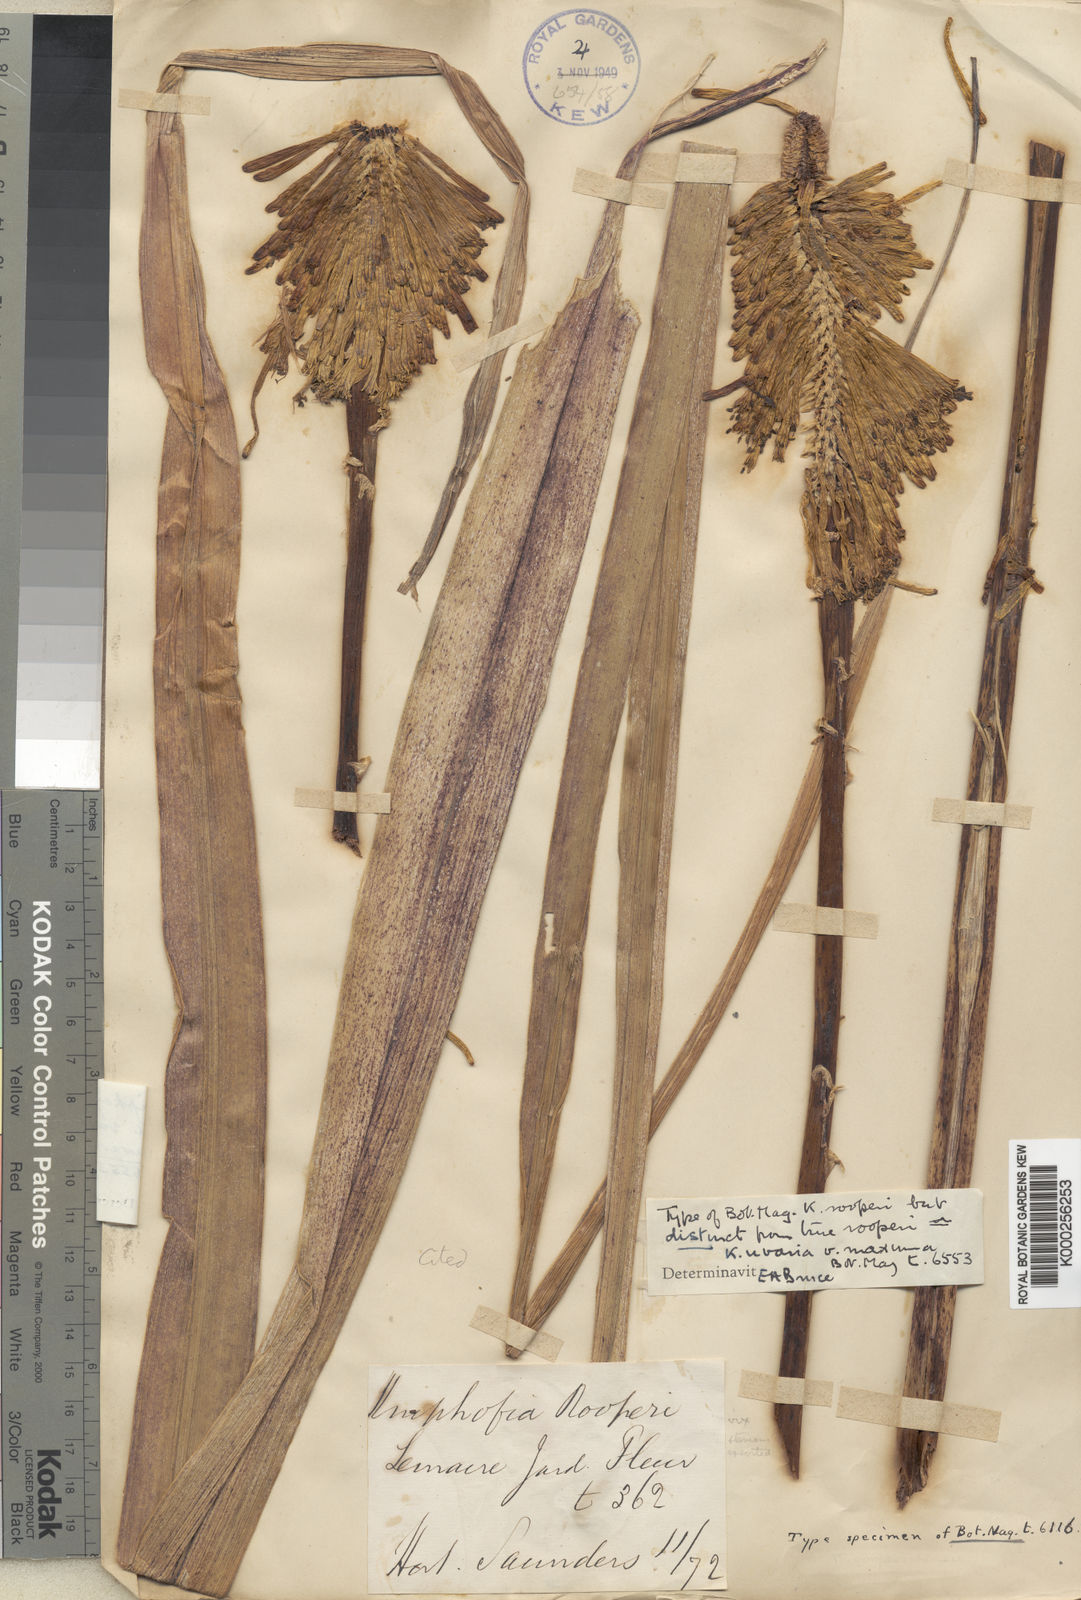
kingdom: Plantae
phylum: Tracheophyta
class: Liliopsida
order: Asparagales
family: Asphodelaceae
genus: Kniphofia
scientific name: Kniphofia linearifolia
